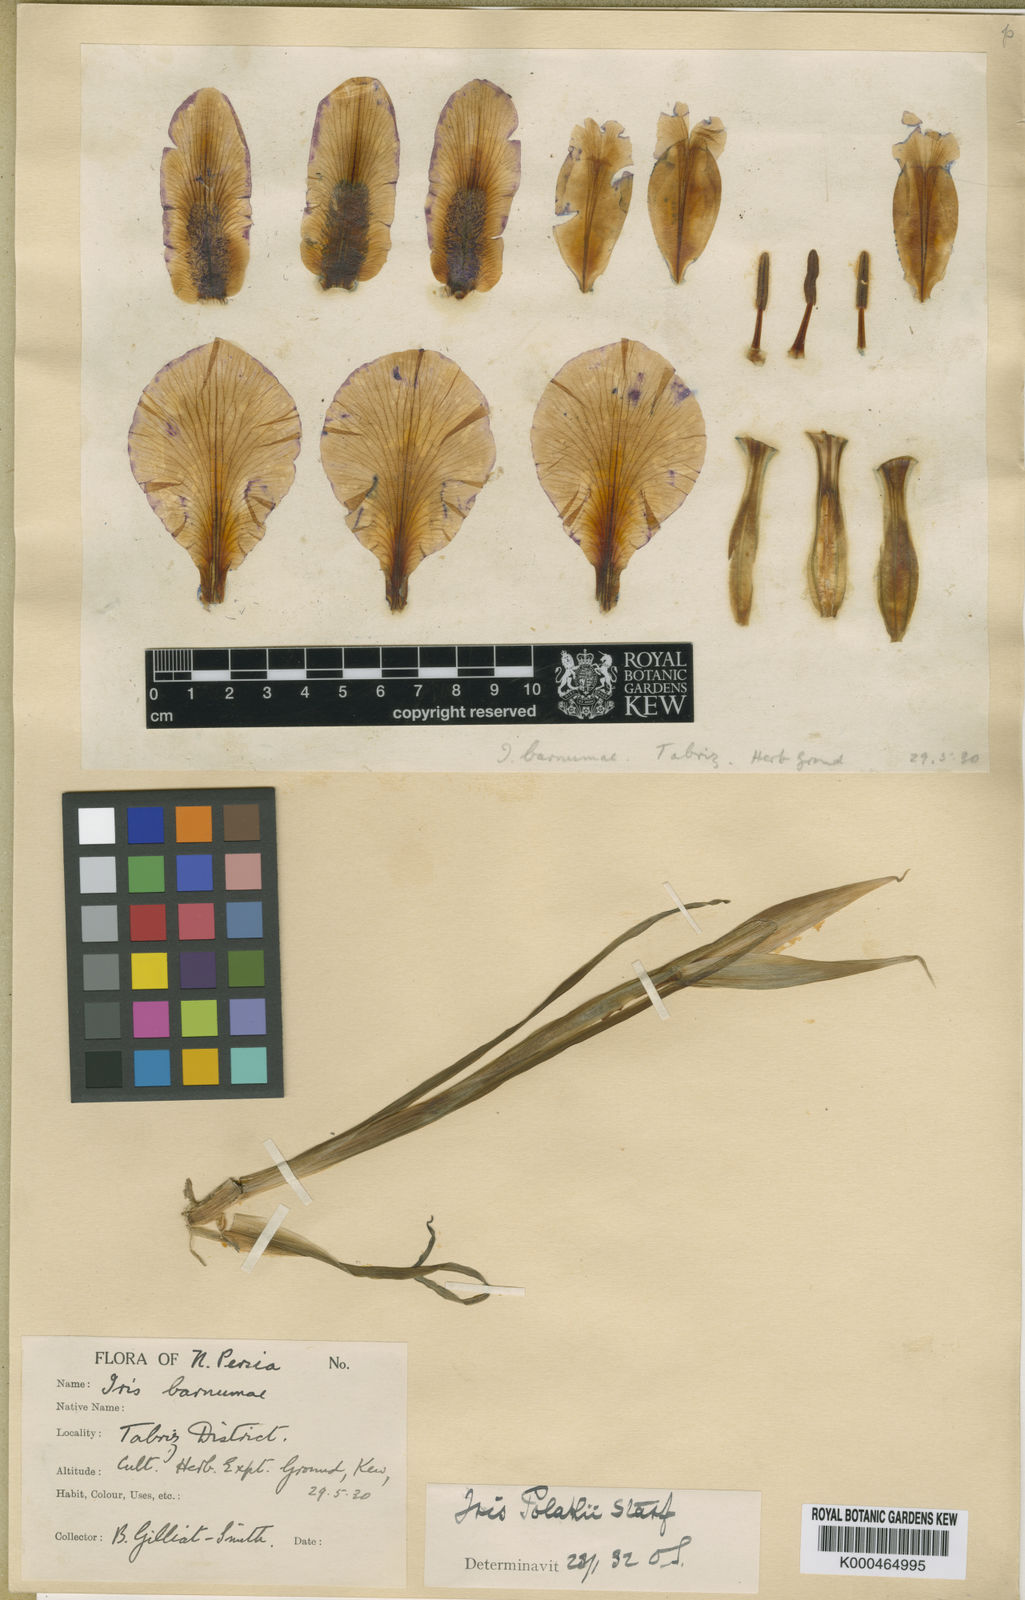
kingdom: Plantae
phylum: Tracheophyta
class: Liliopsida
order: Asparagales
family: Iridaceae
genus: Iris
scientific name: Iris polakii
